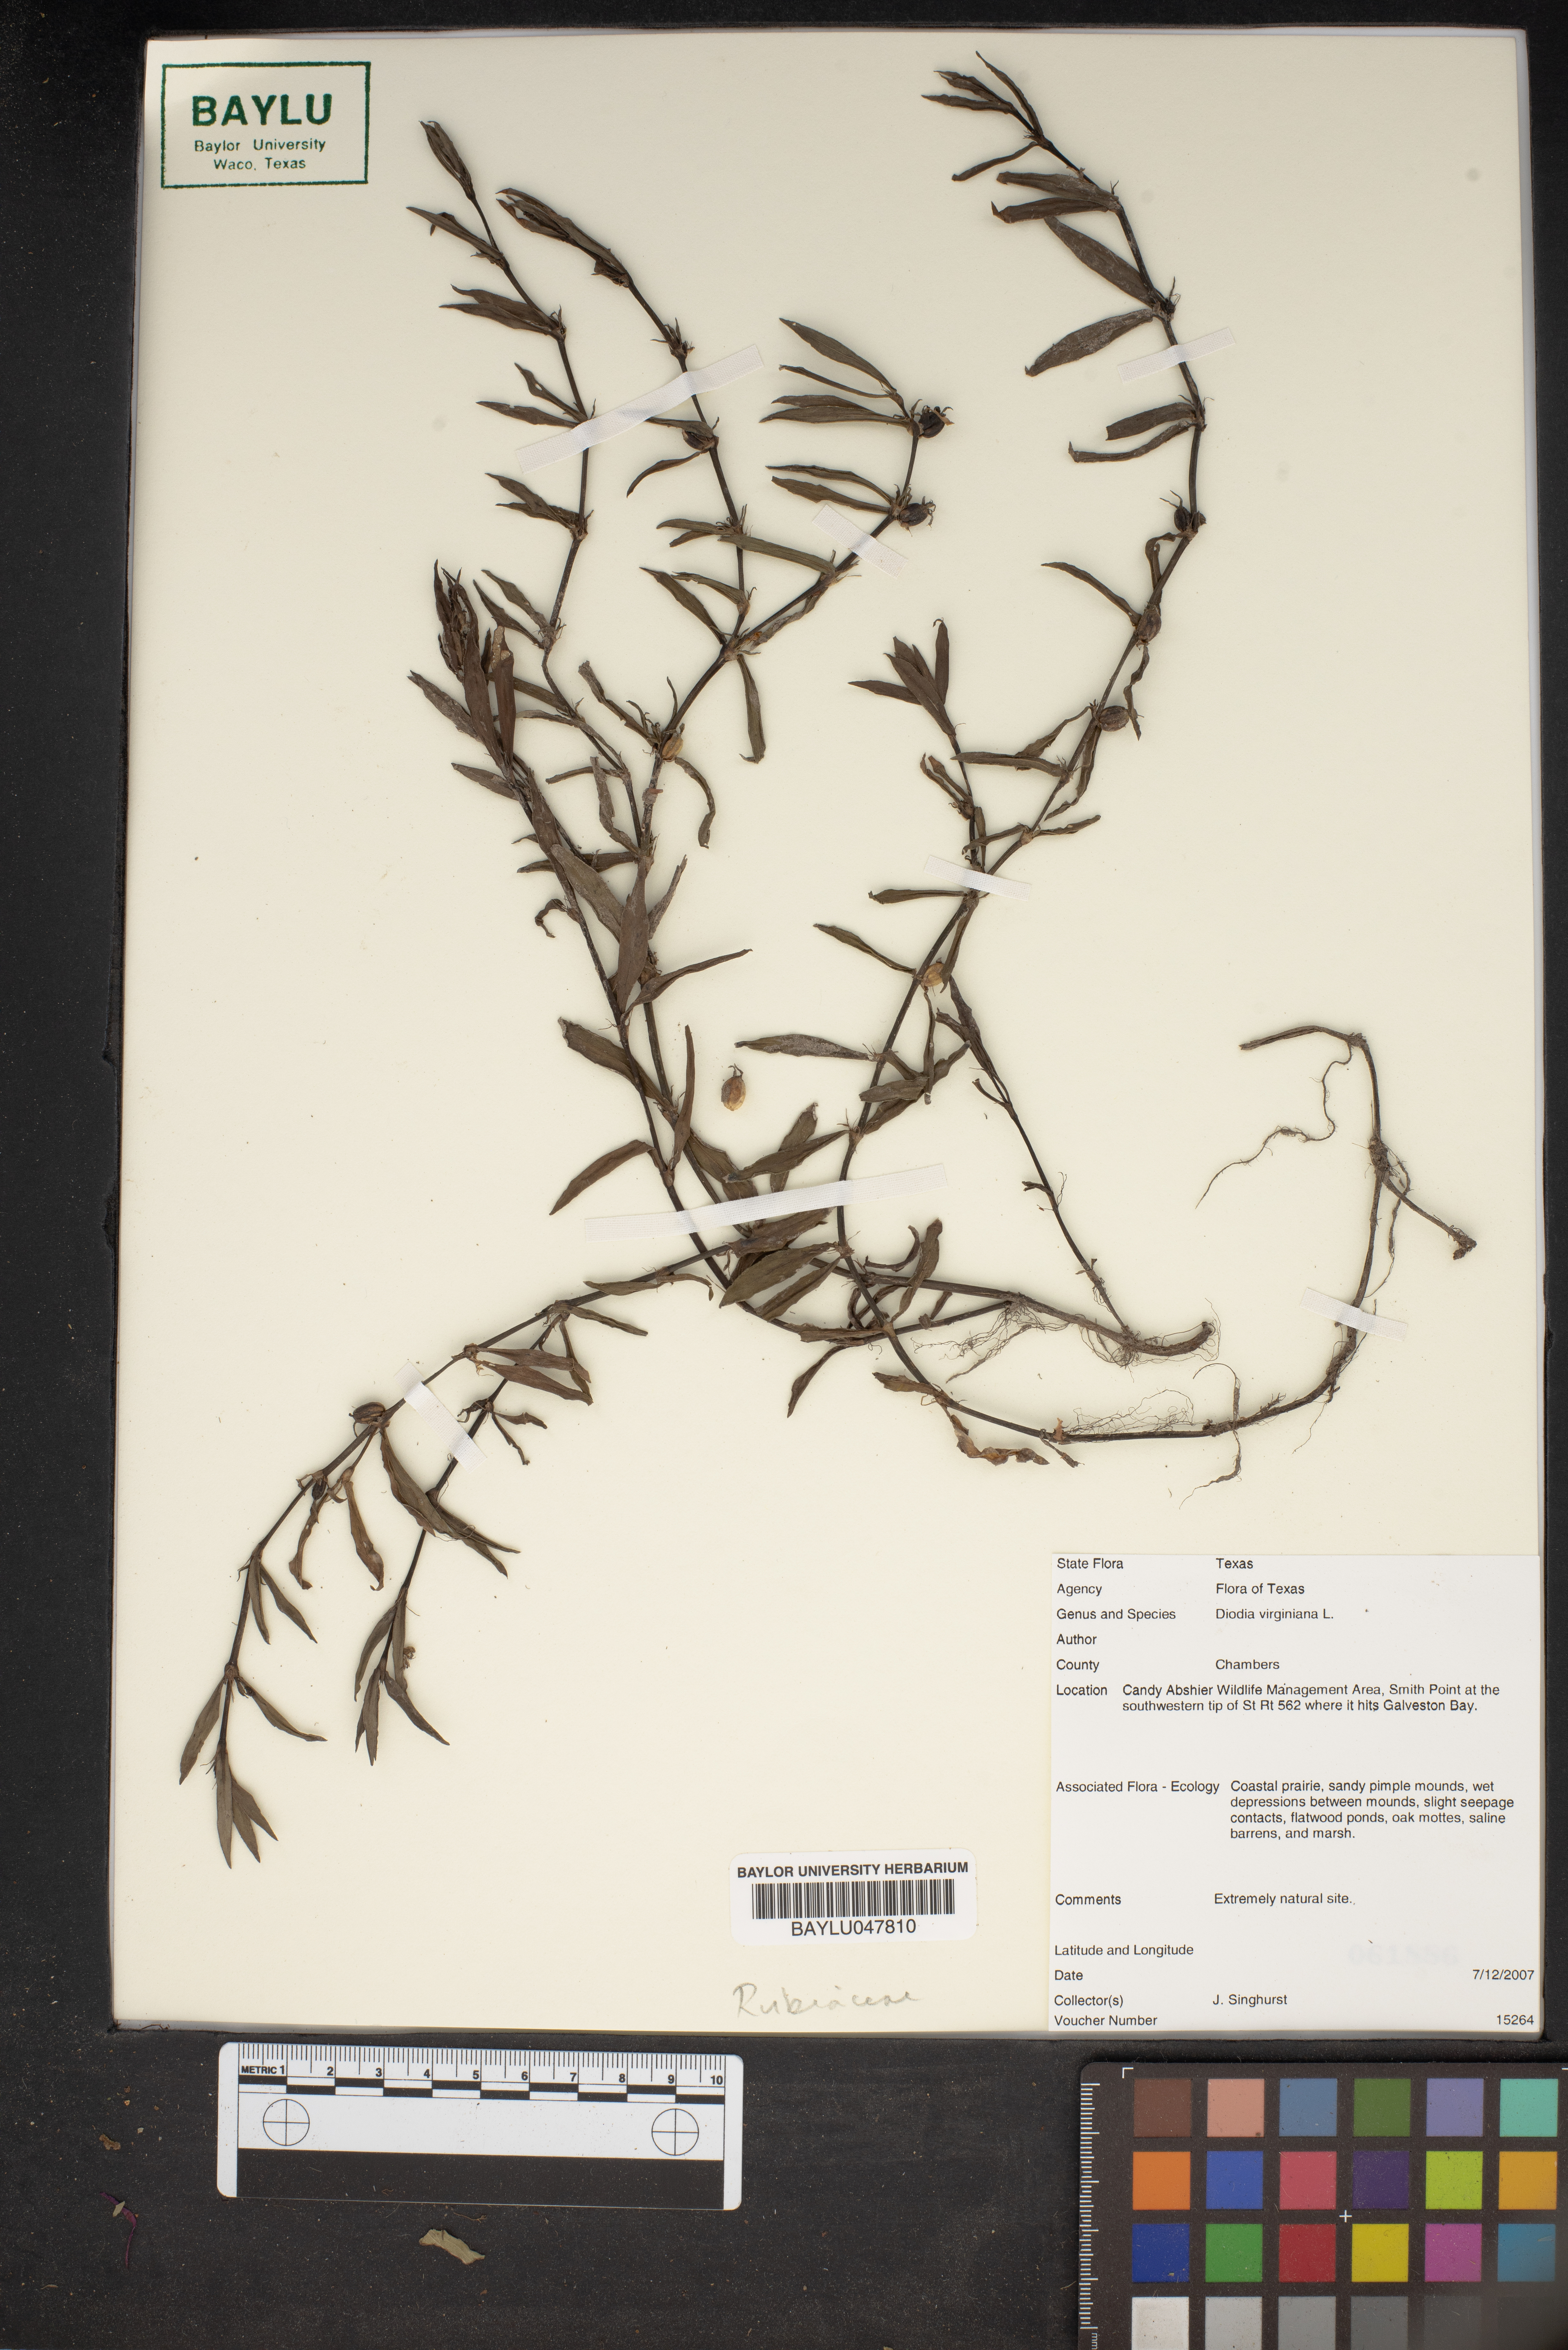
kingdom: Plantae
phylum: Tracheophyta
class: Magnoliopsida
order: Gentianales
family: Rubiaceae
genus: Diodia
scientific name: Diodia virginiana
